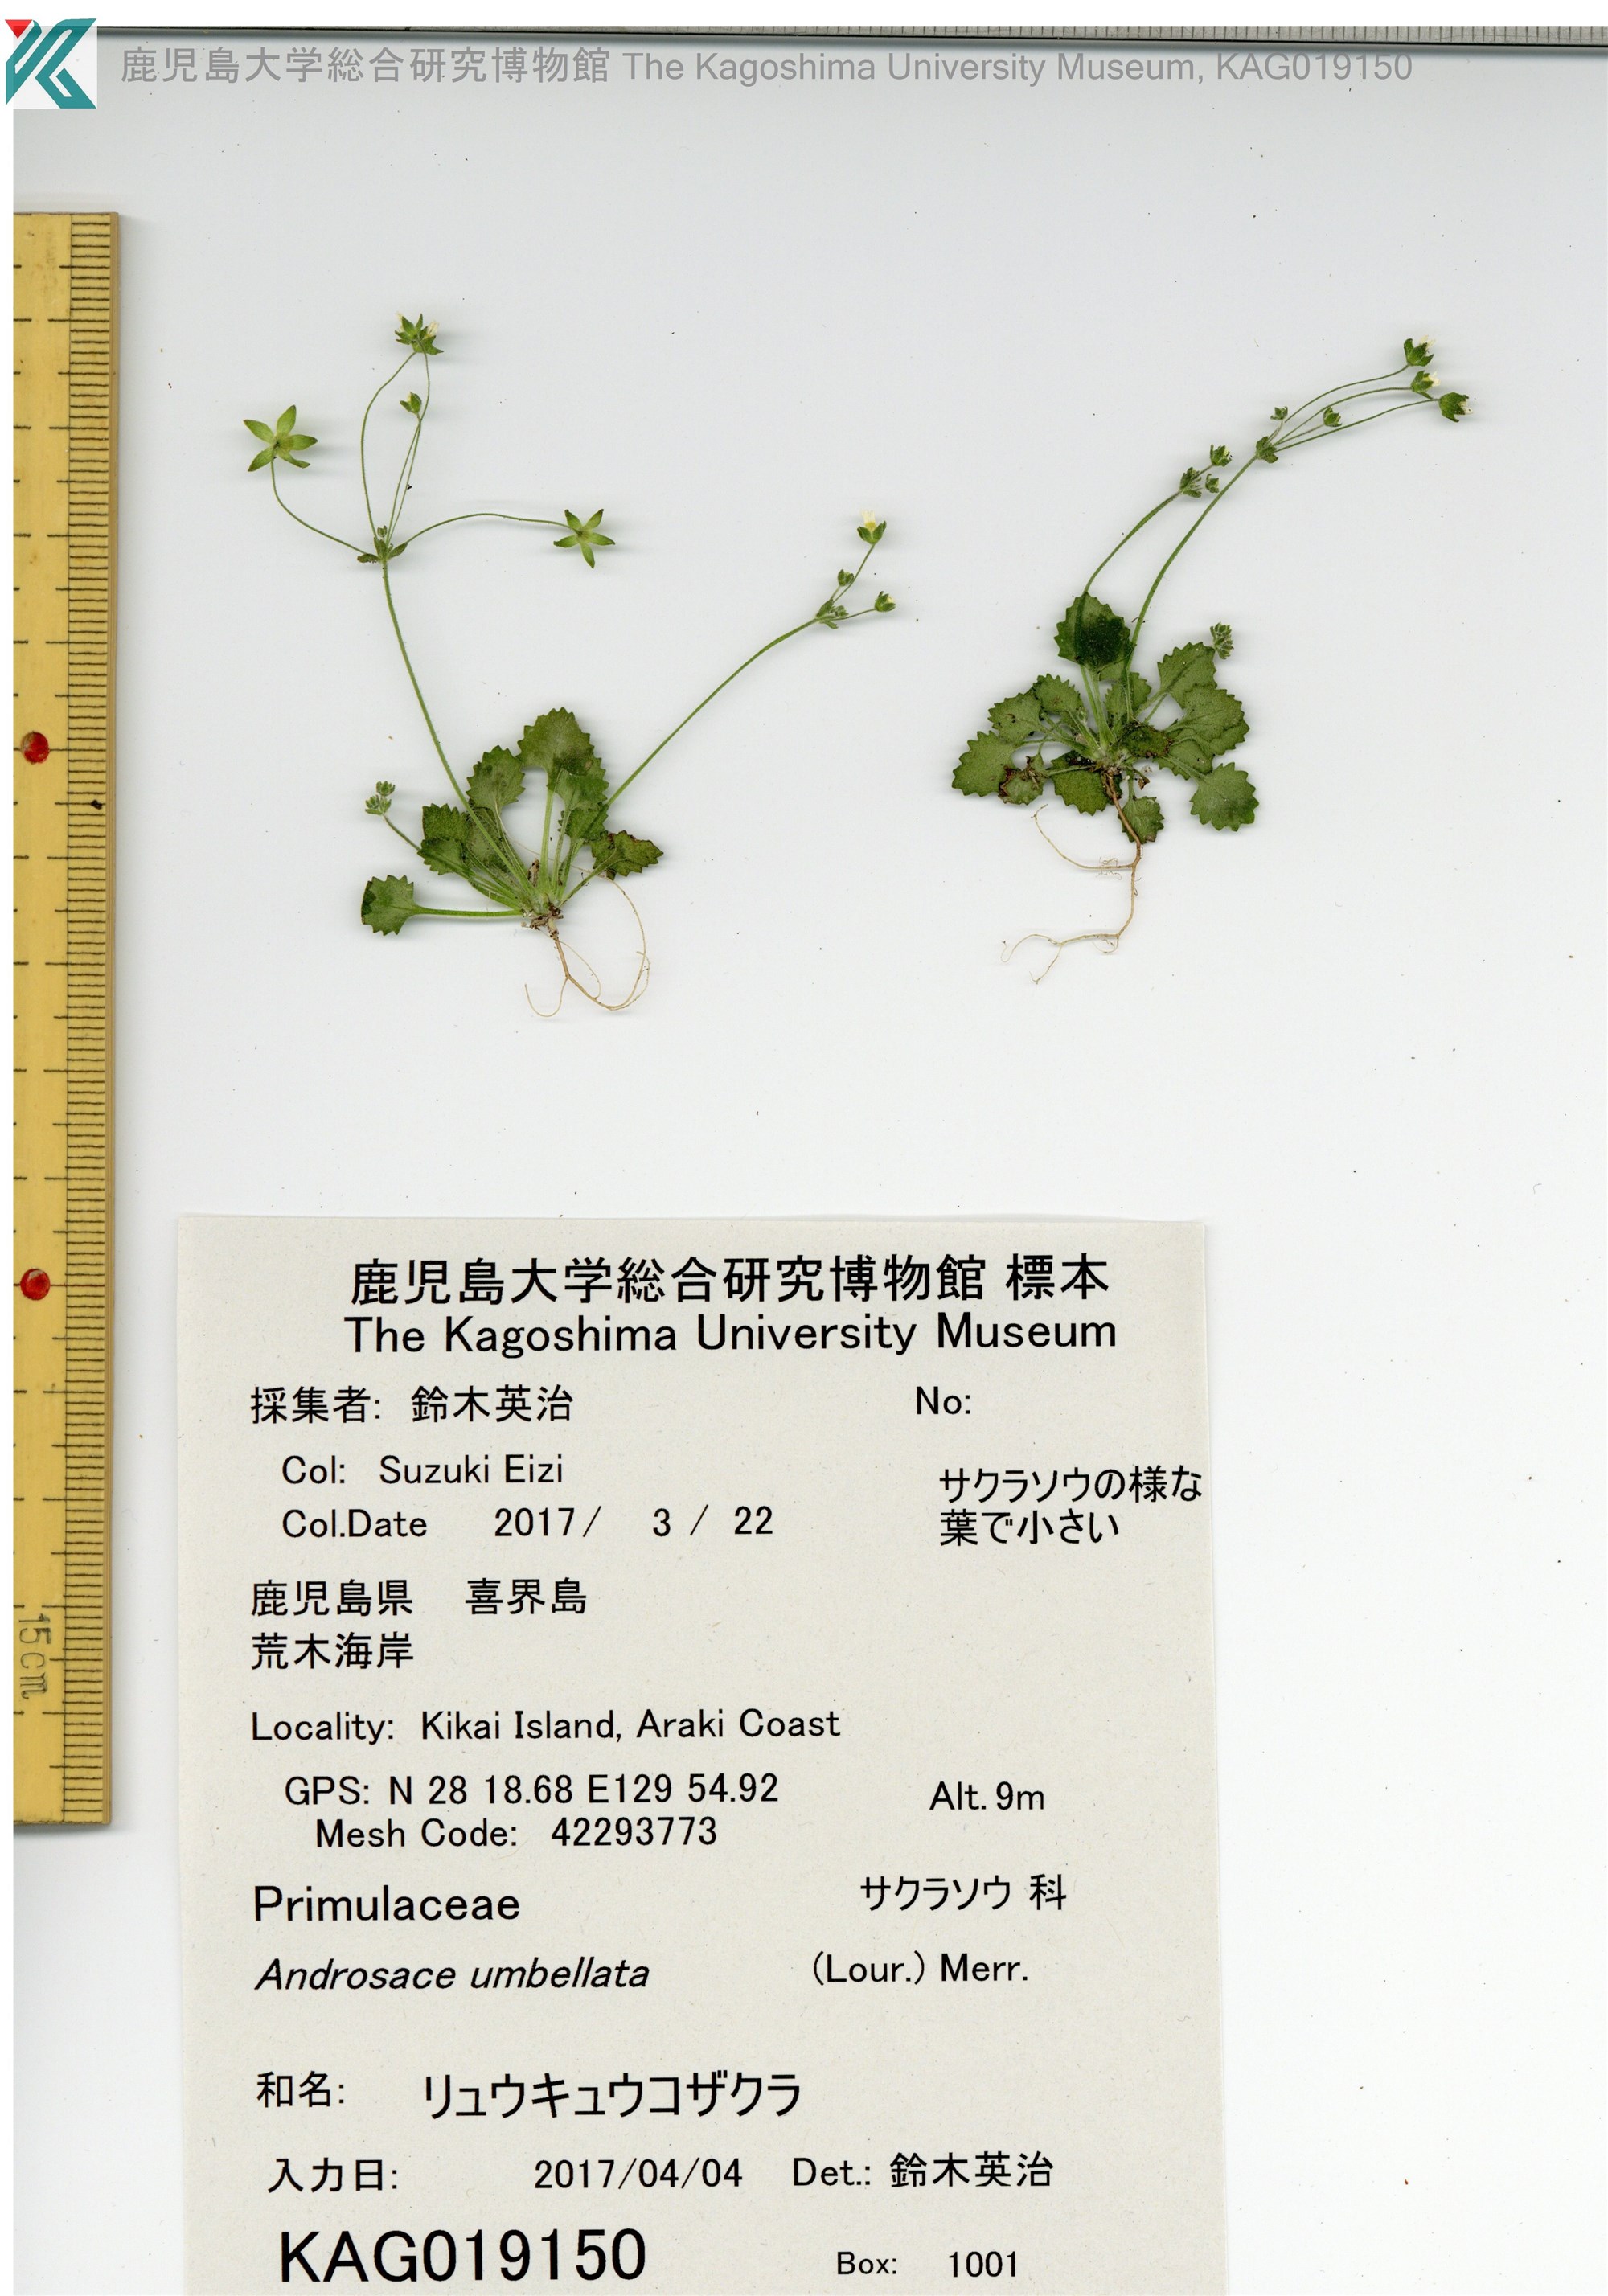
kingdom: Plantae
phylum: Tracheophyta
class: Magnoliopsida
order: Ericales
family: Primulaceae
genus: Androsace
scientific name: Androsace umbellata
